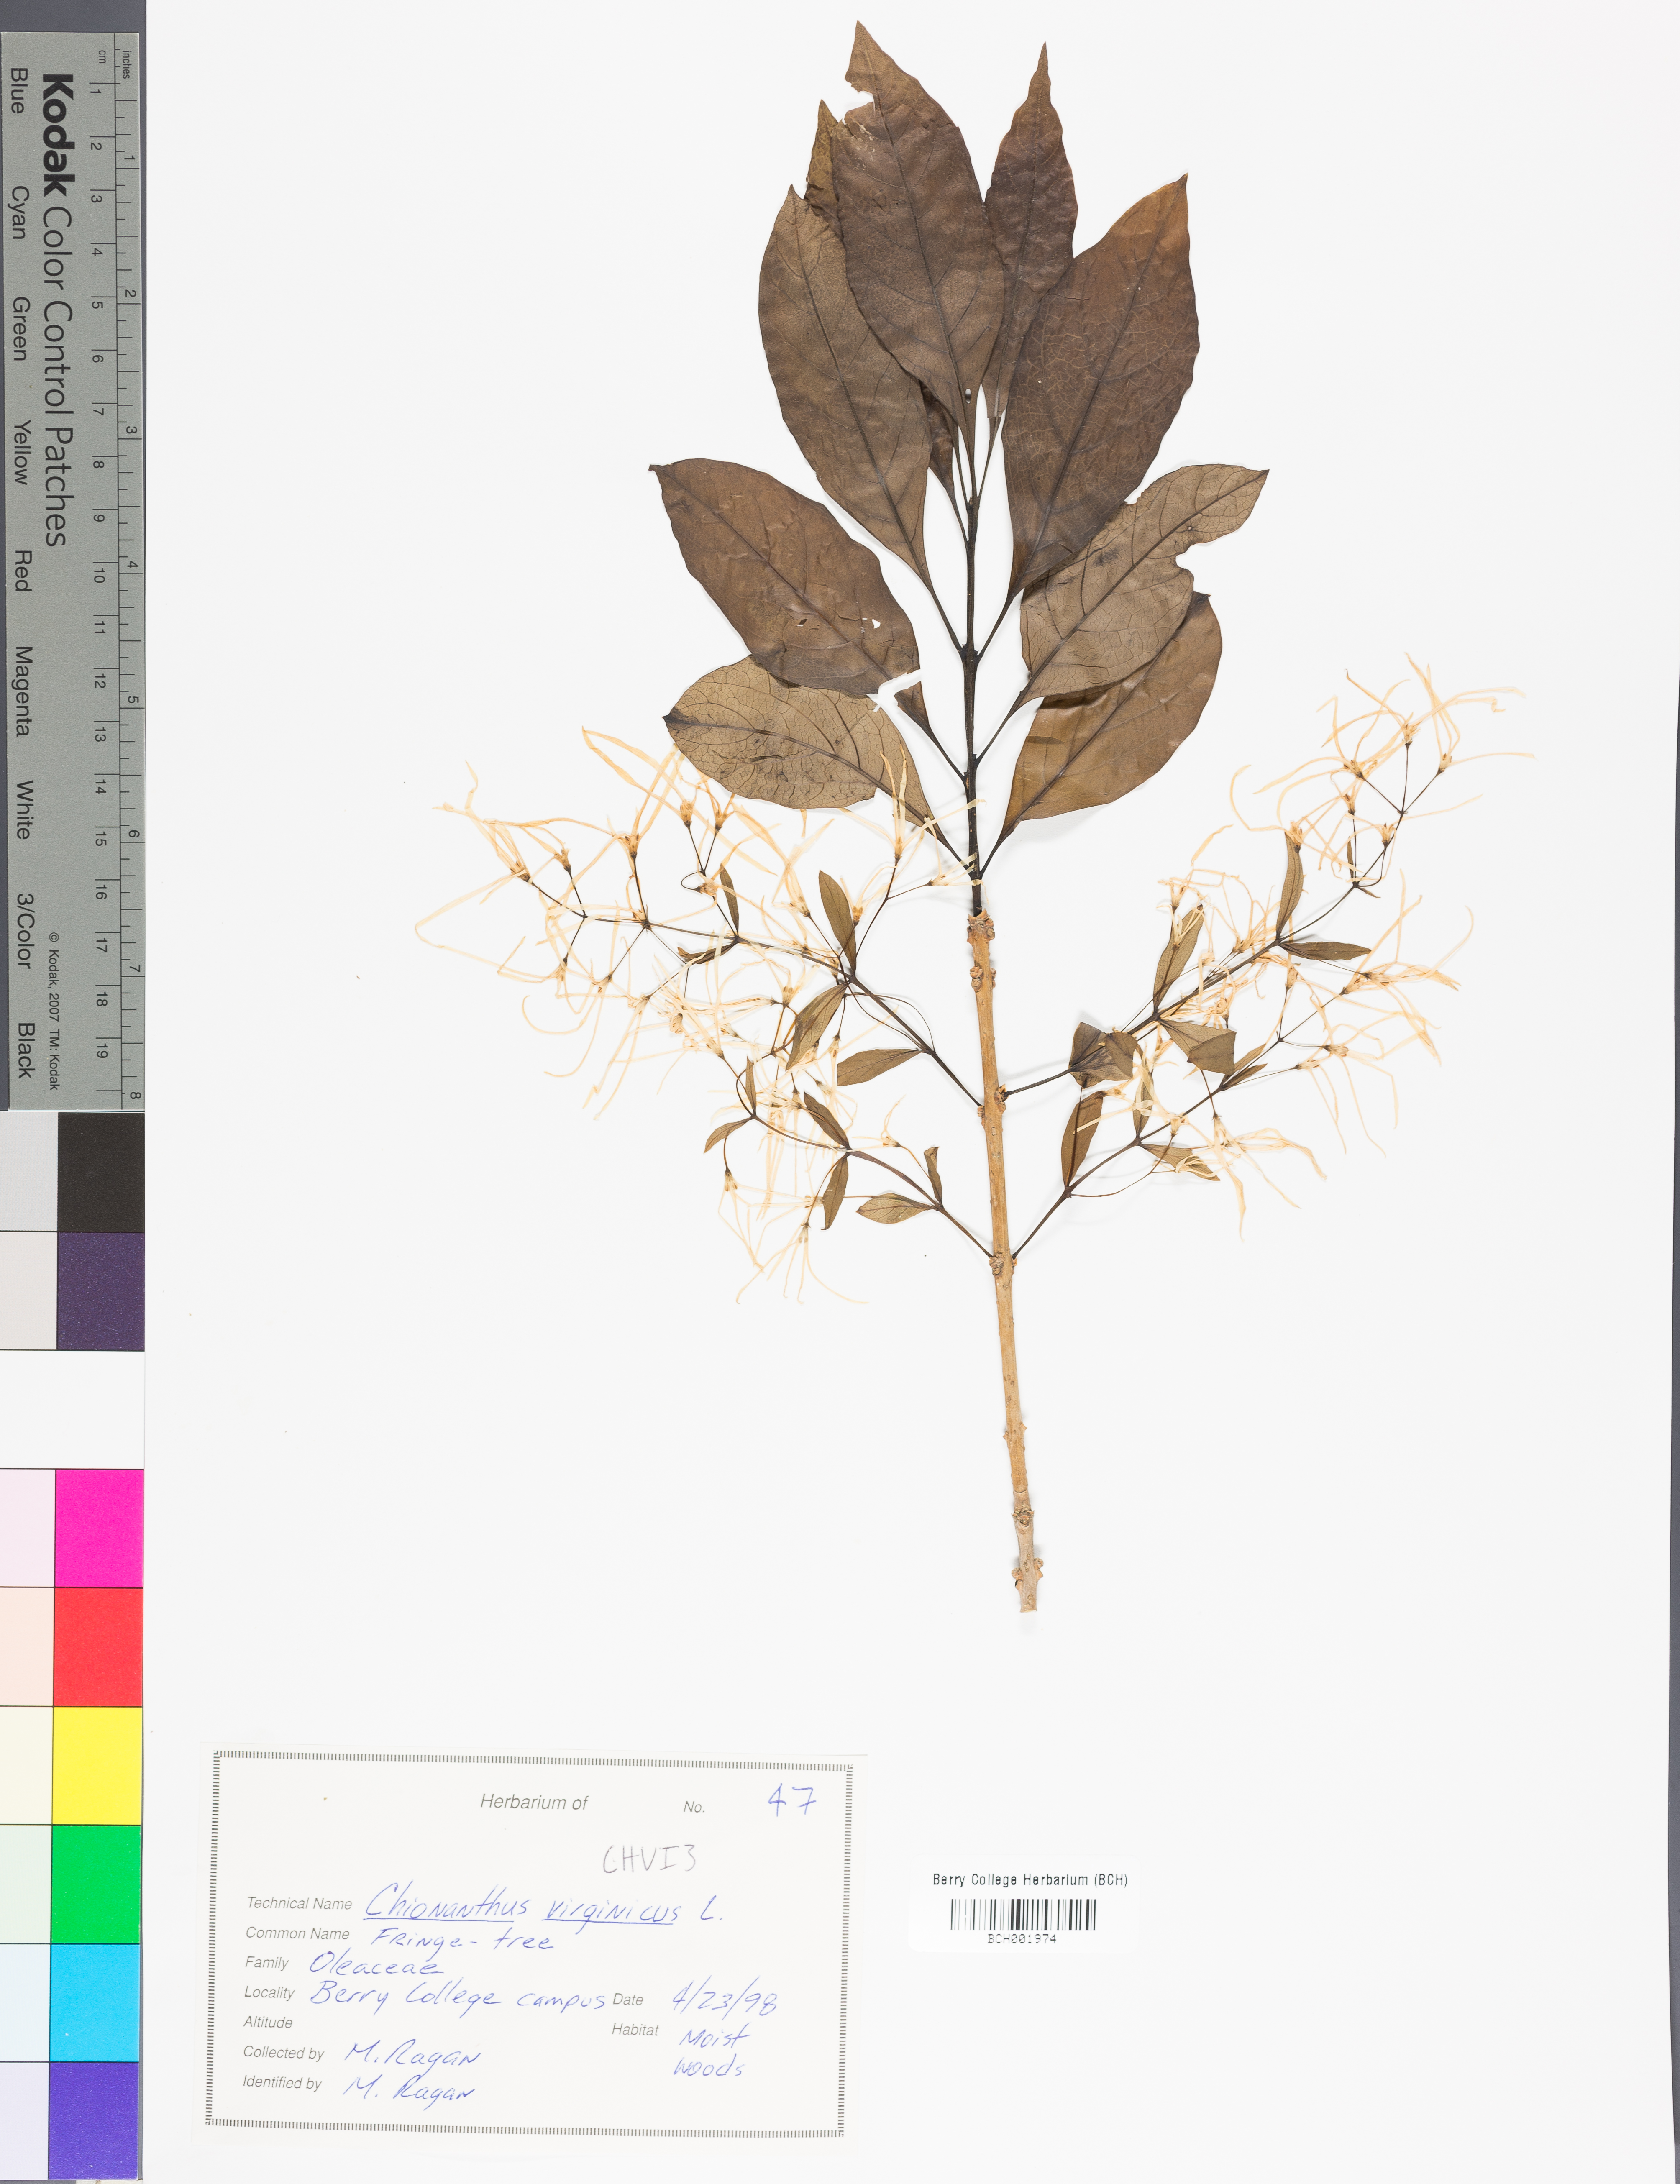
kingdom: Plantae
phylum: Tracheophyta
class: Magnoliopsida
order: Lamiales
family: Oleaceae
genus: Chionanthus
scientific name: Chionanthus virginicus
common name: American fringetree
